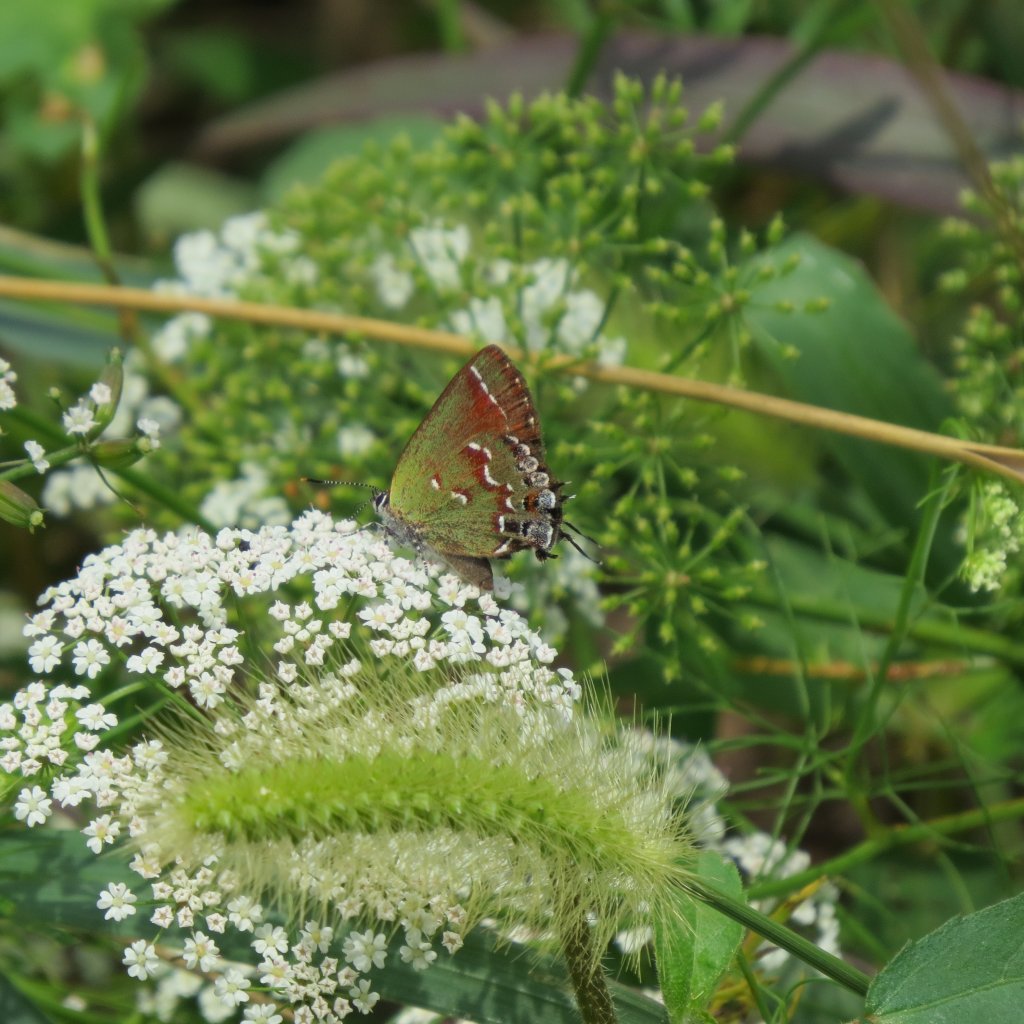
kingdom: Animalia
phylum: Arthropoda
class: Insecta
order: Lepidoptera
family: Lycaenidae
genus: Mitoura
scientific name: Mitoura gryneus
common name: Juniper Hairstreak
